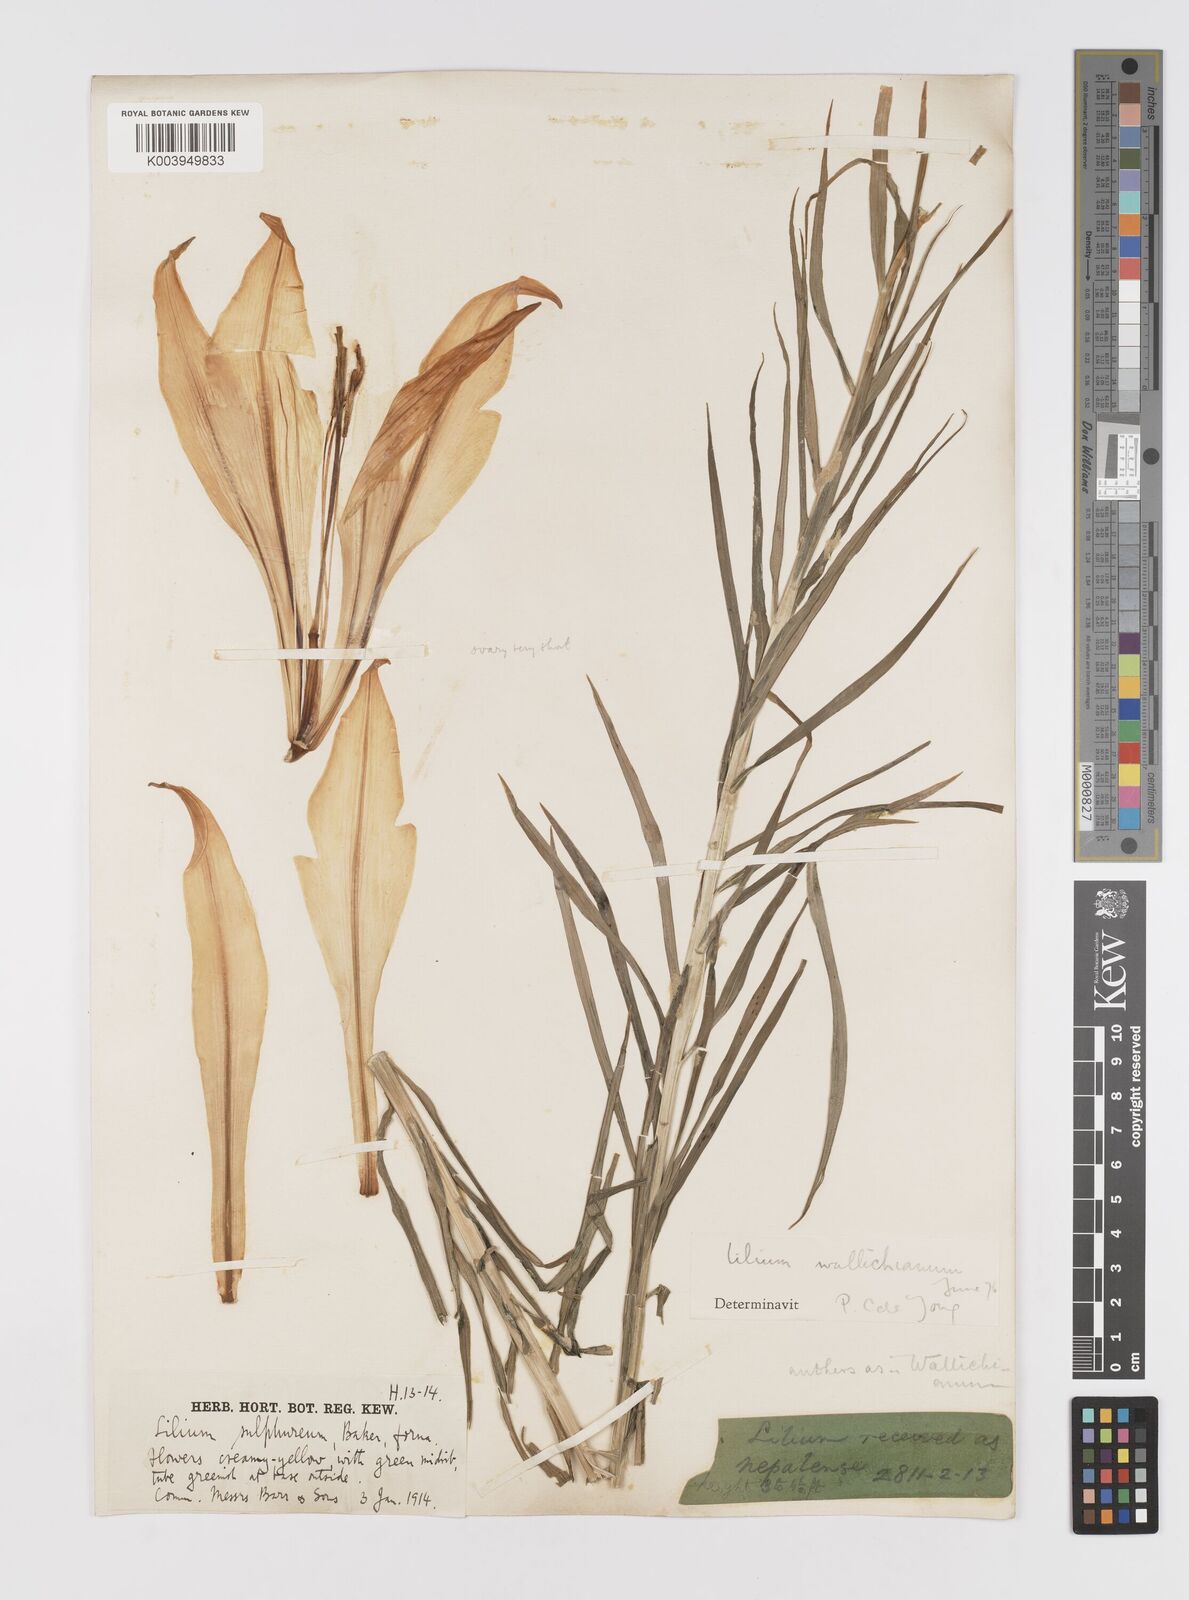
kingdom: Plantae
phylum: Tracheophyta
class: Liliopsida
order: Liliales
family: Liliaceae
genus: Lilium
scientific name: Lilium wallichianum
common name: Wallich's lily
